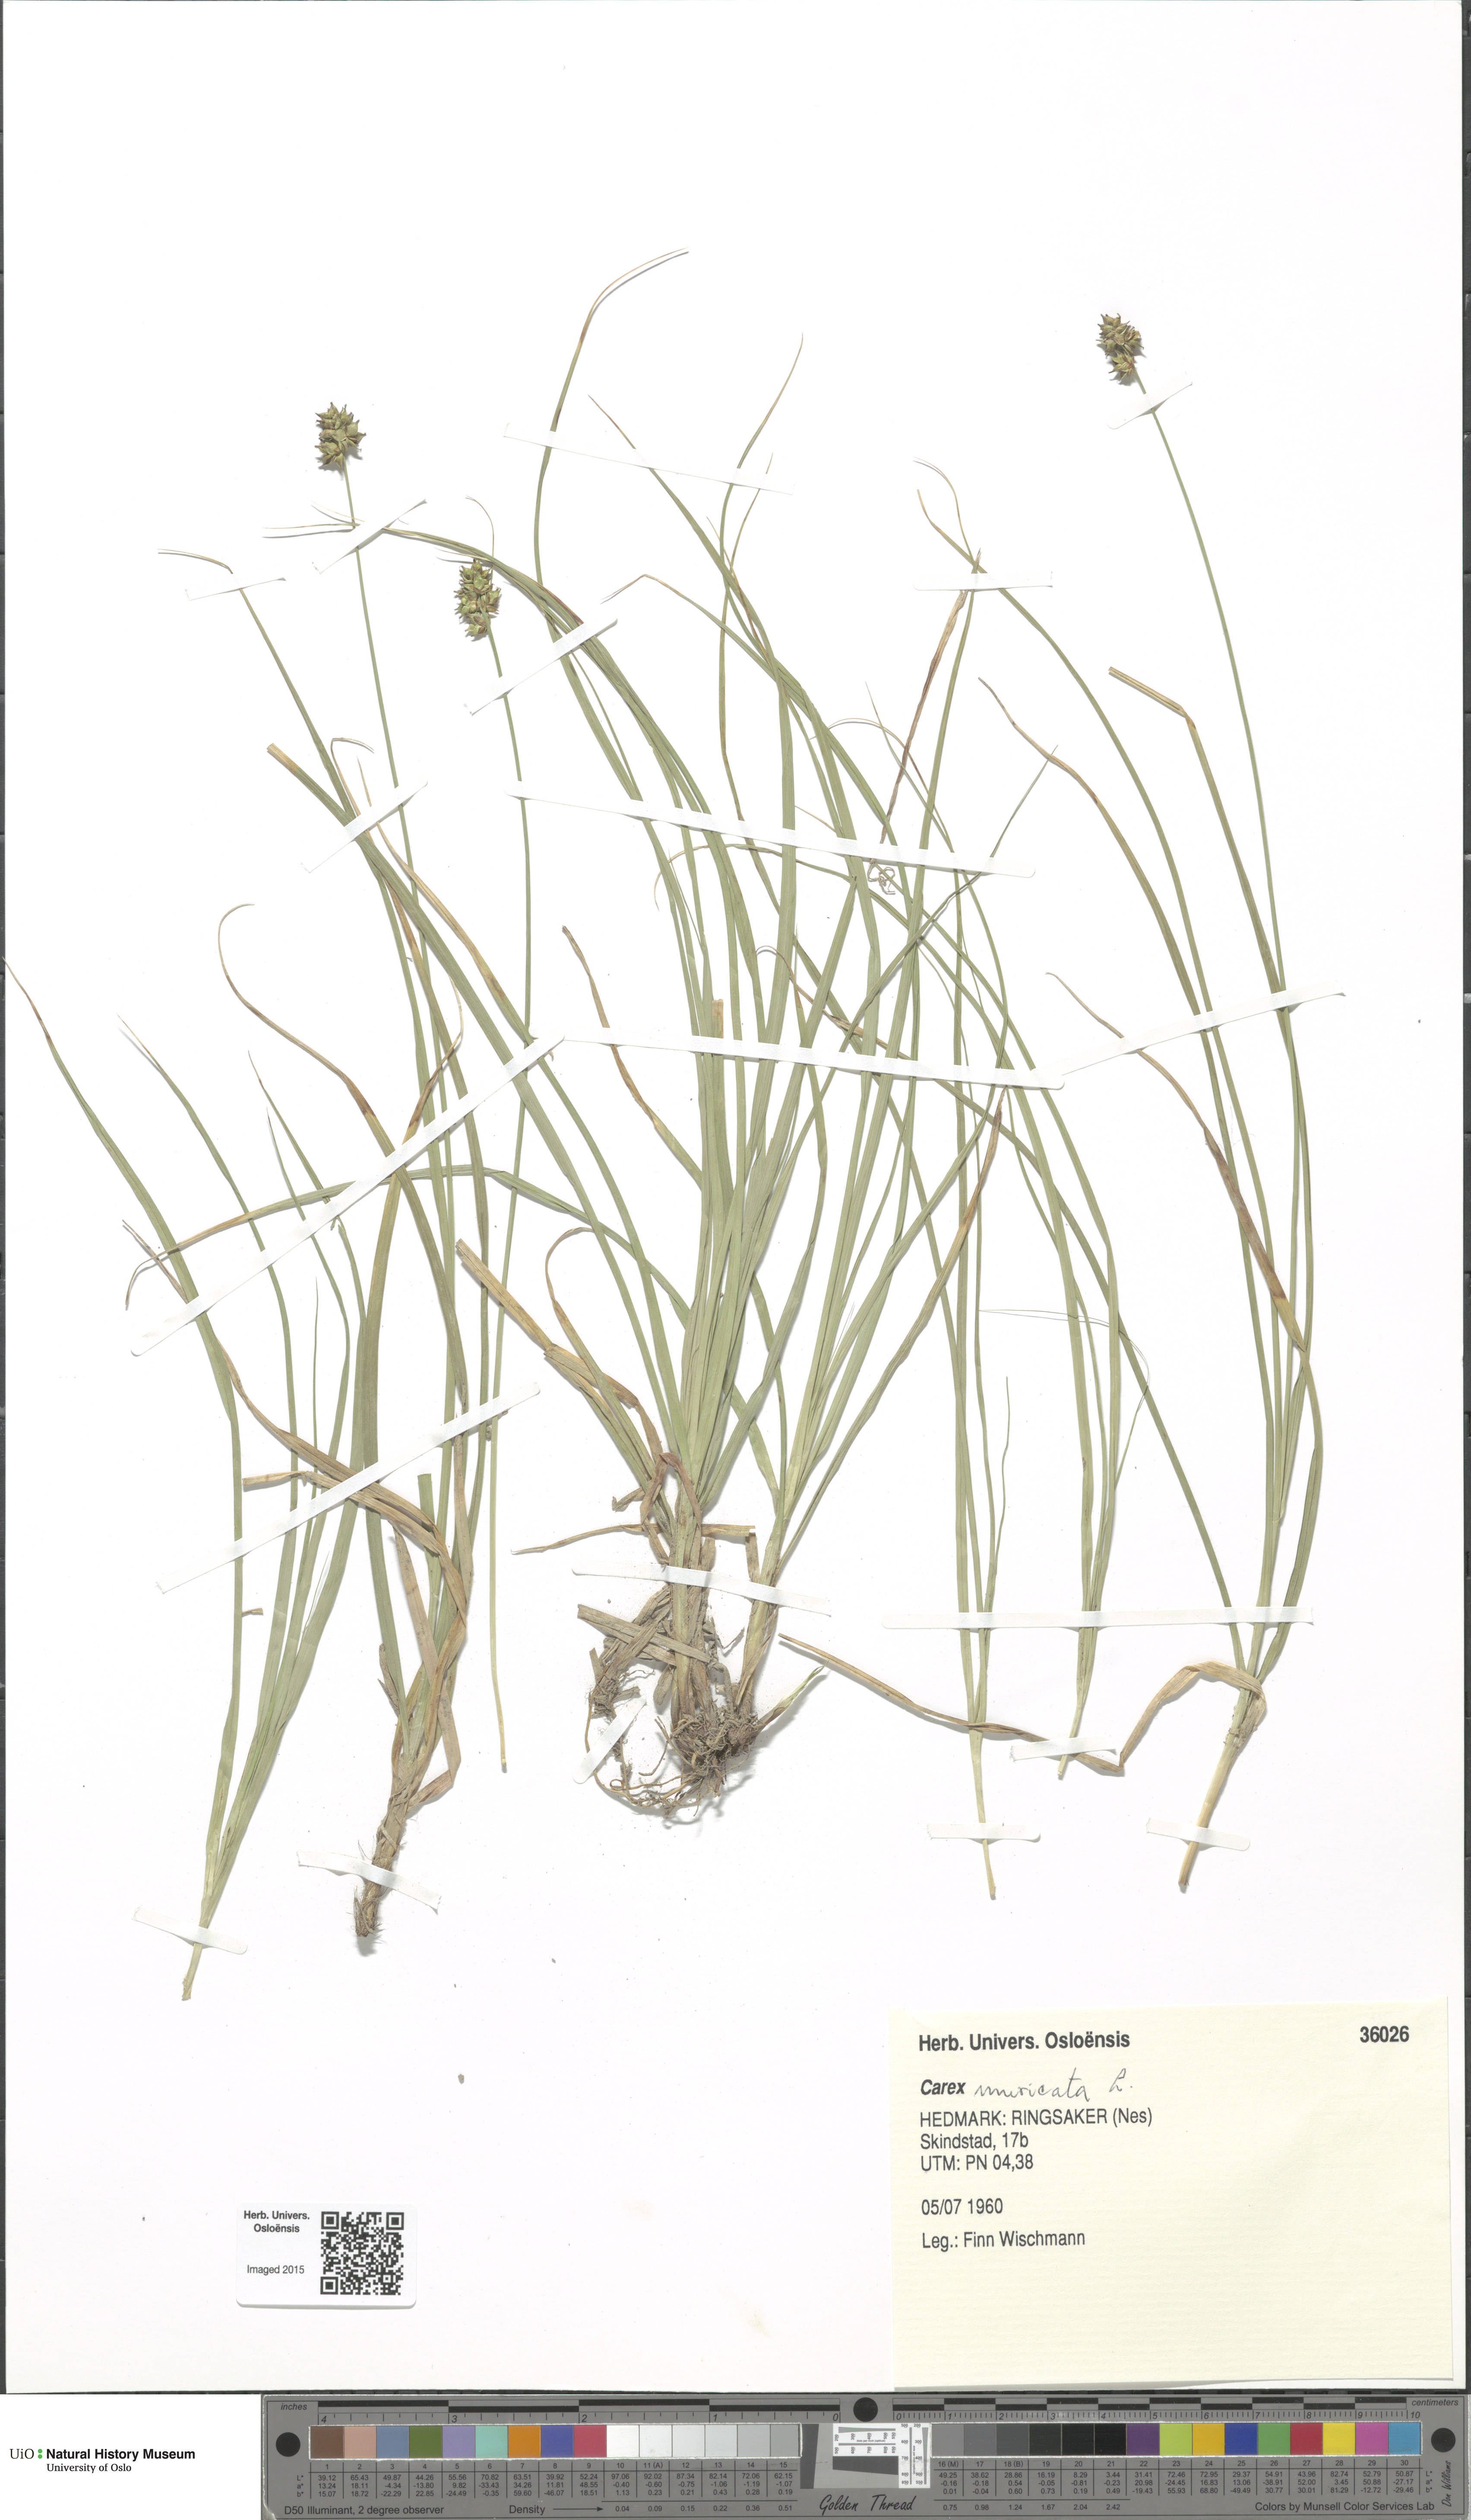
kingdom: Plantae
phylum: Tracheophyta
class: Liliopsida
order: Poales
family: Cyperaceae
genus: Carex
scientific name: Carex muricata
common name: Rough sedge
